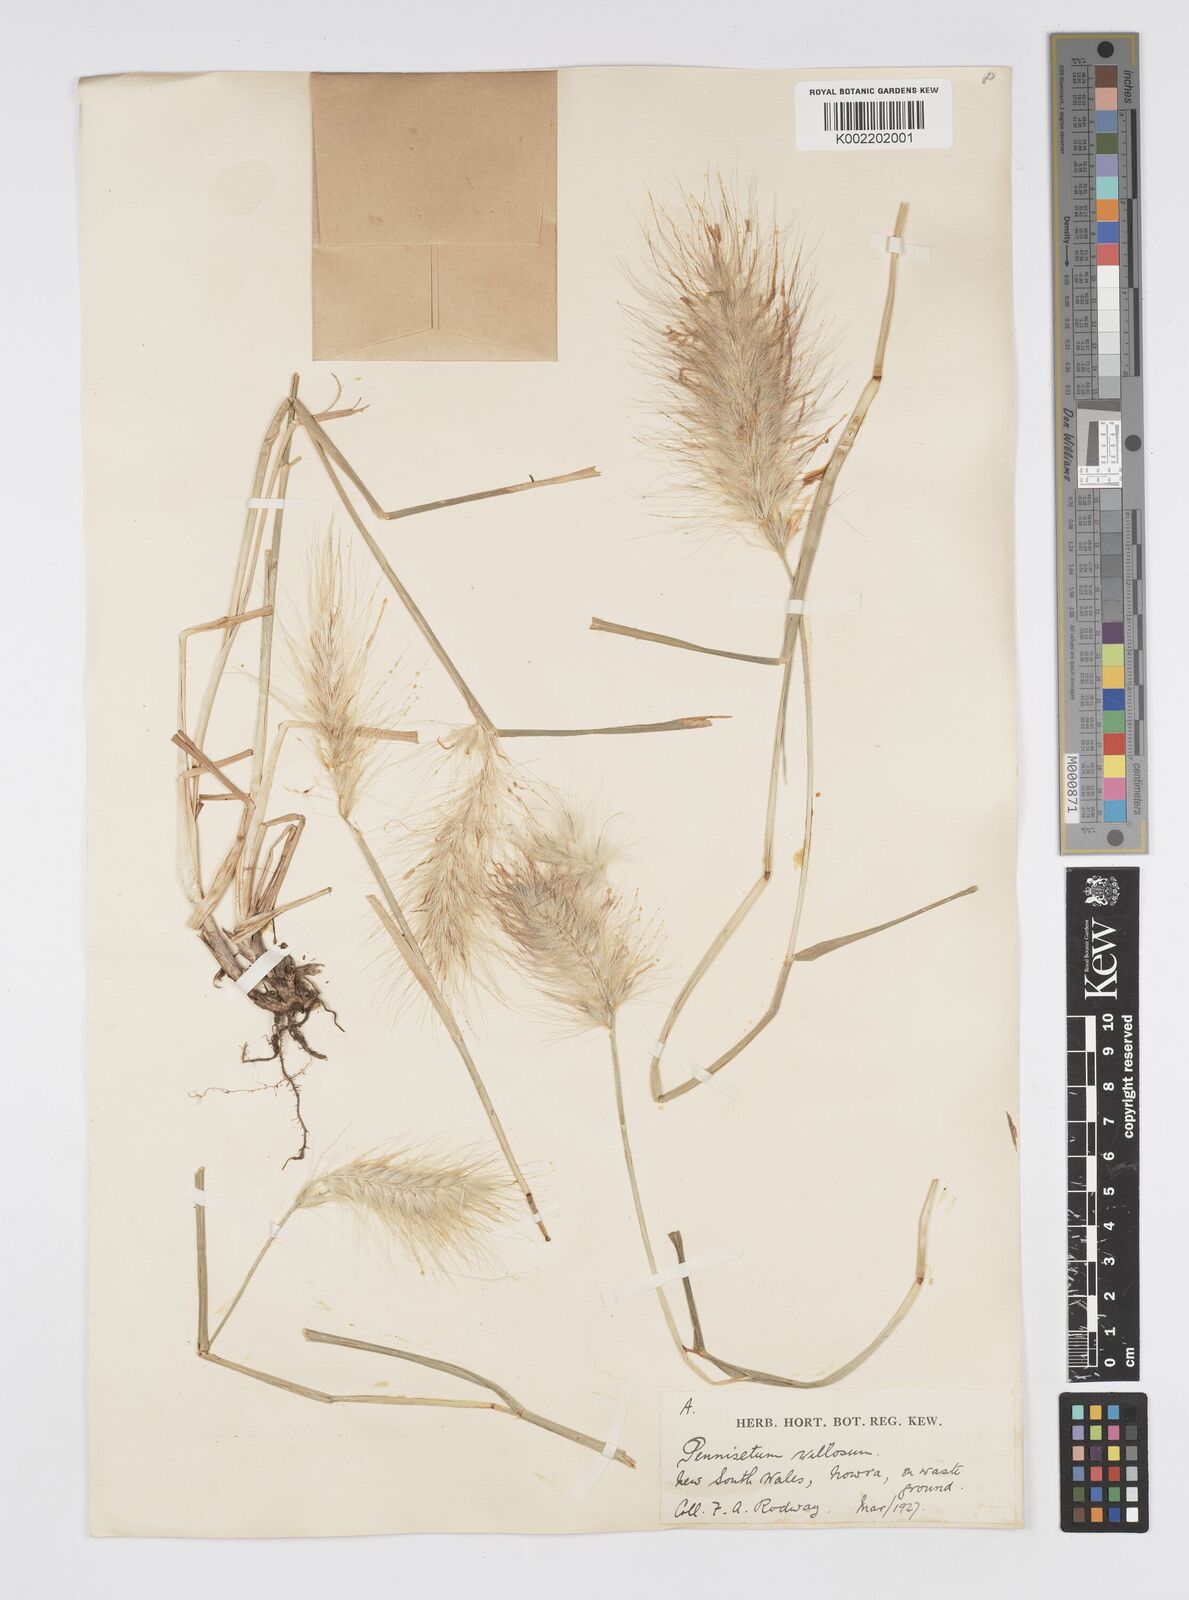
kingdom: Plantae
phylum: Tracheophyta
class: Liliopsida
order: Poales
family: Poaceae
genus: Cenchrus
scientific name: Cenchrus longisetus
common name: Feathertop
